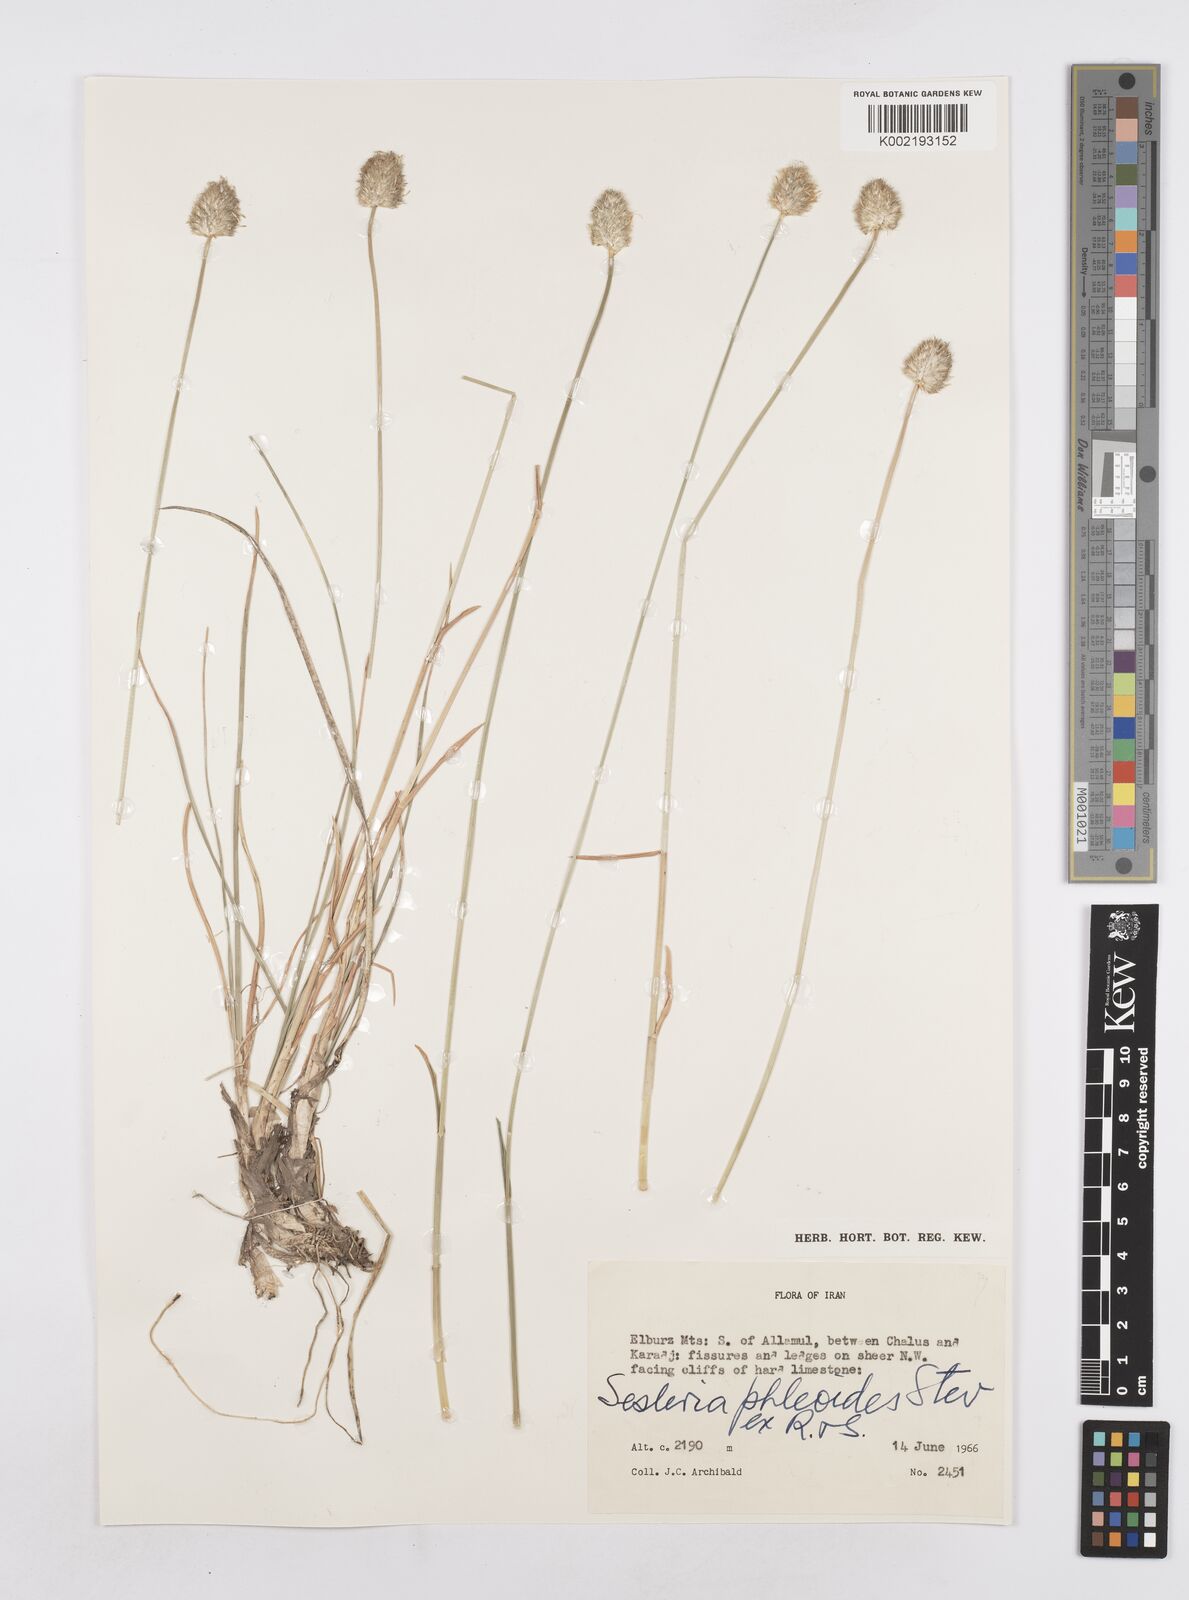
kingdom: Plantae
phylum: Tracheophyta
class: Liliopsida
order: Poales
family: Poaceae
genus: Sesleria
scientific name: Sesleria phleoides
